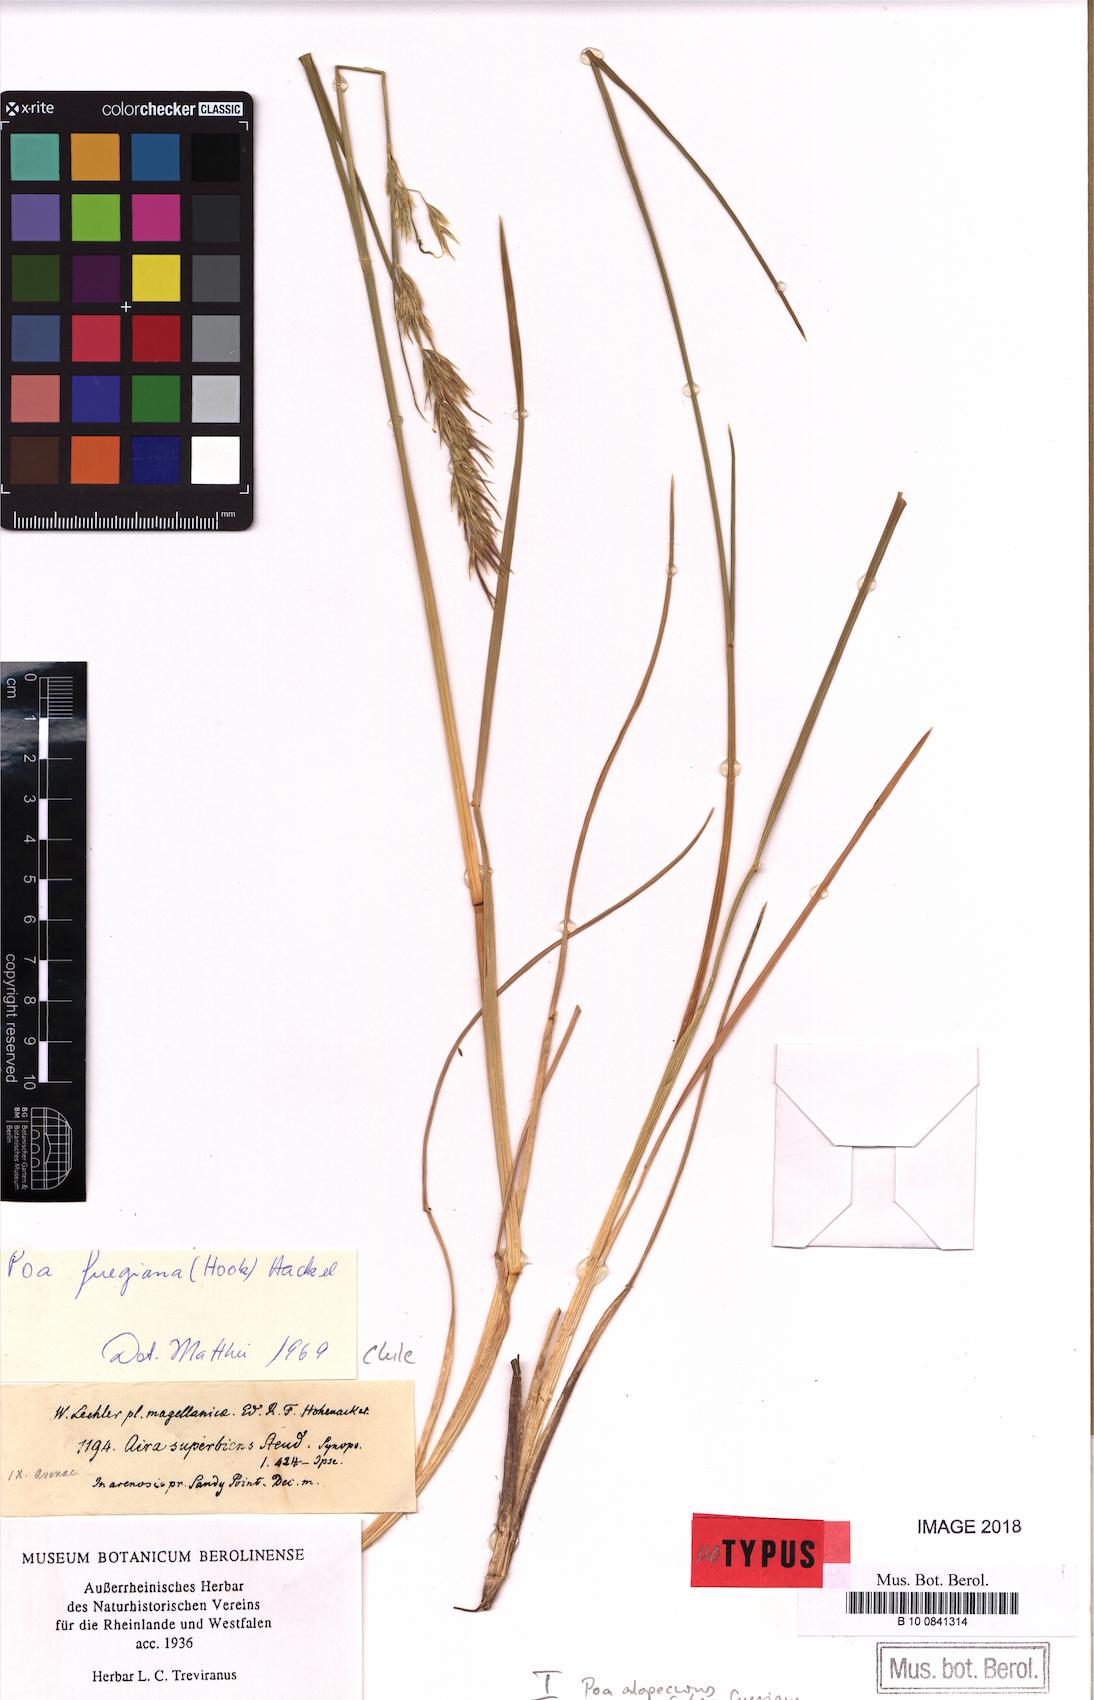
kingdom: Plantae
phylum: Tracheophyta
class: Liliopsida
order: Poales
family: Poaceae
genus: Poa
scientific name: Poa alopecurus
